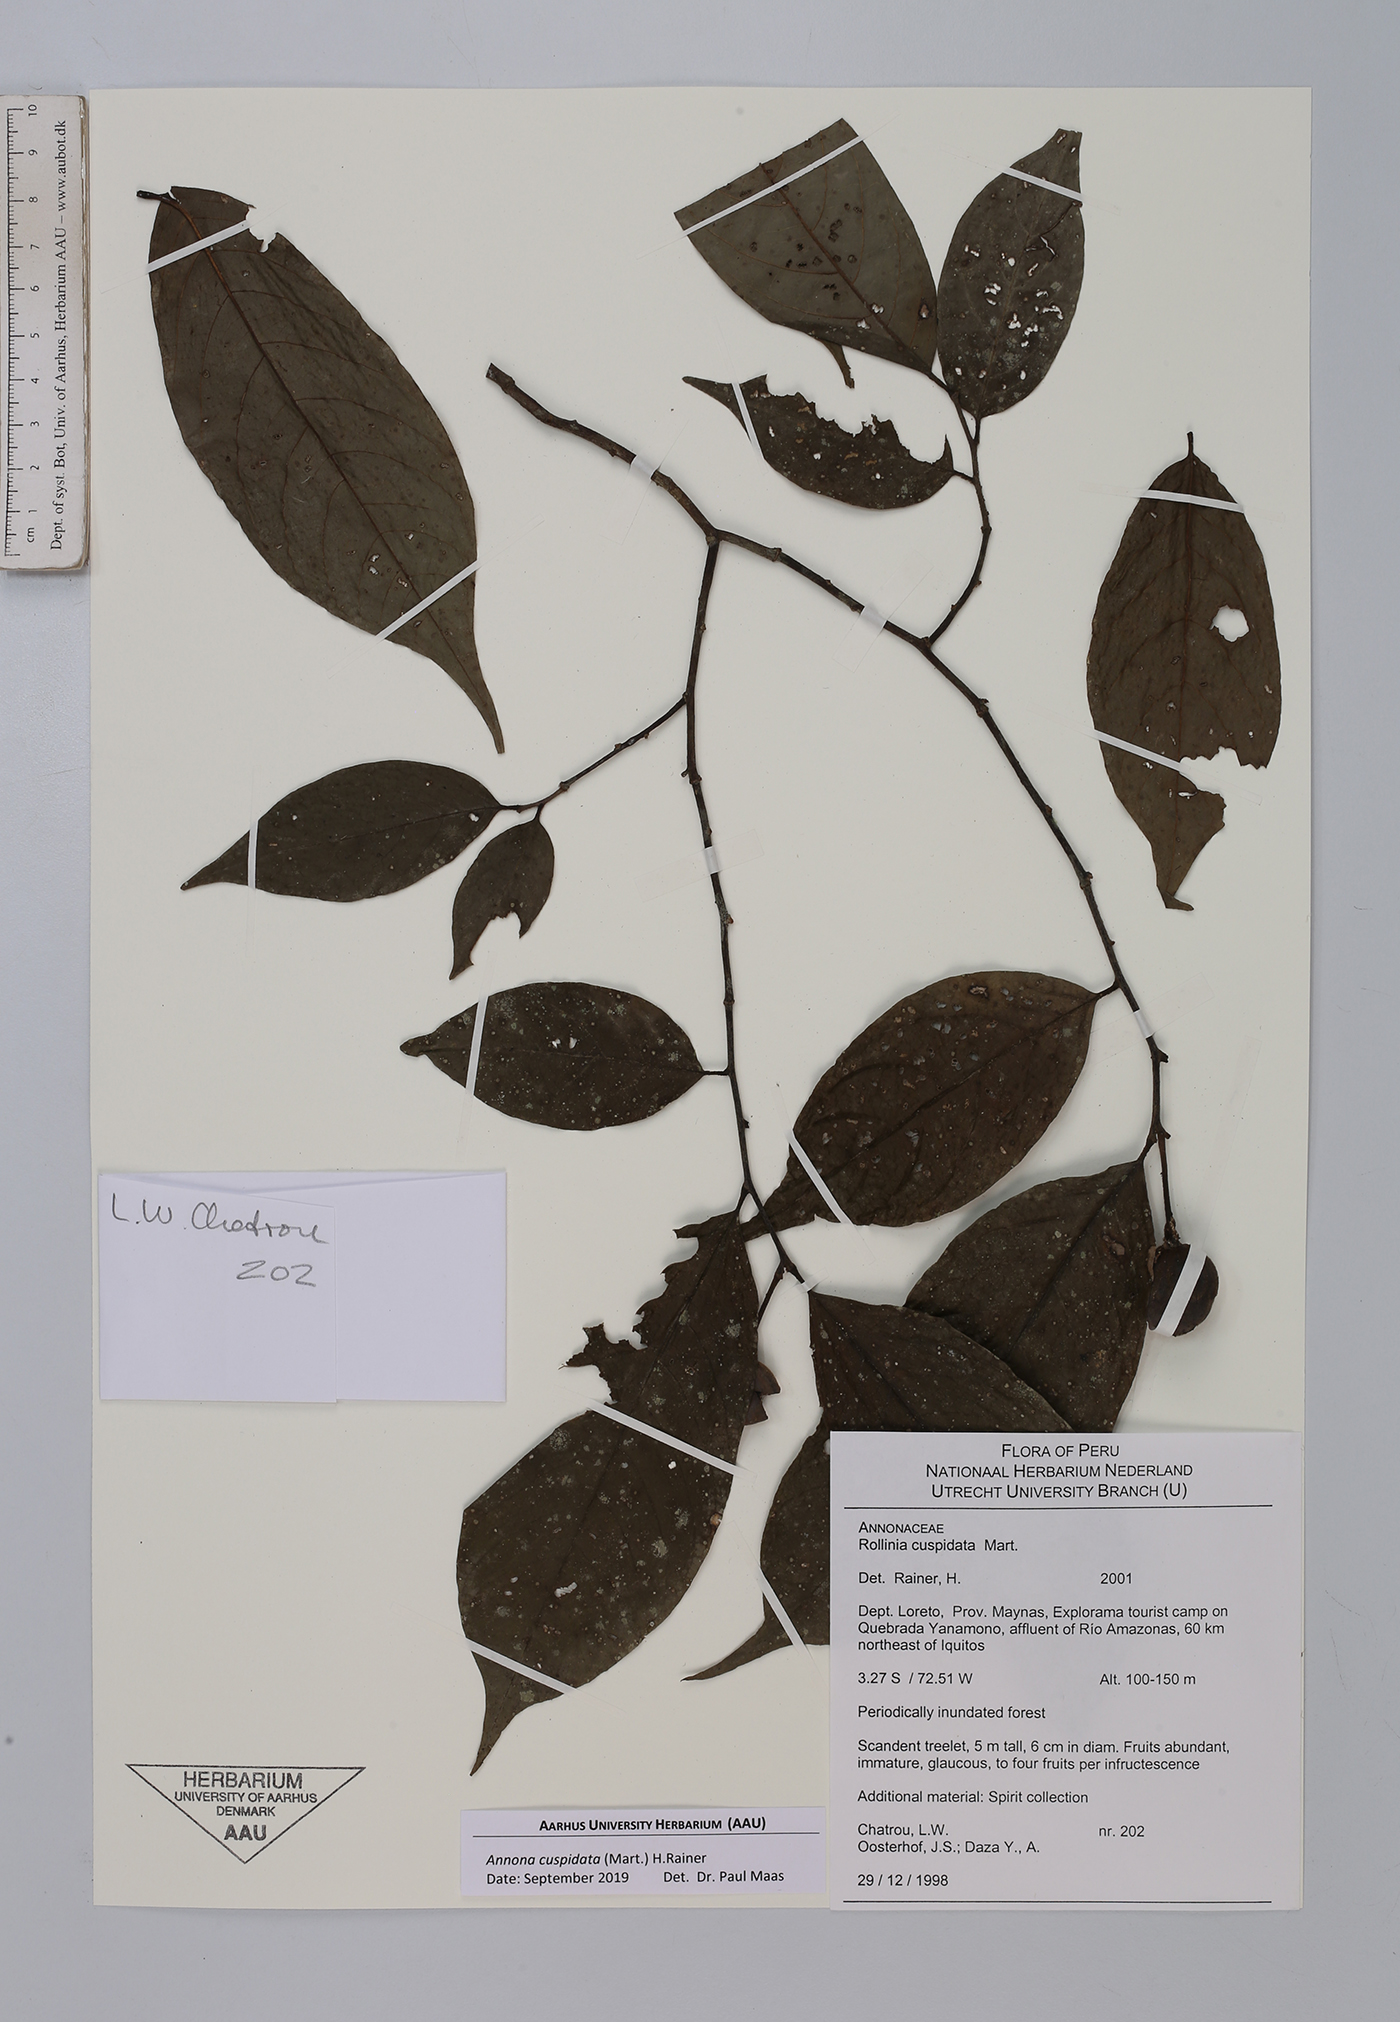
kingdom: Plantae
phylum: Tracheophyta
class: Magnoliopsida
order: Magnoliales
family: Annonaceae
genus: Annona
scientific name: Annona cuspidata
